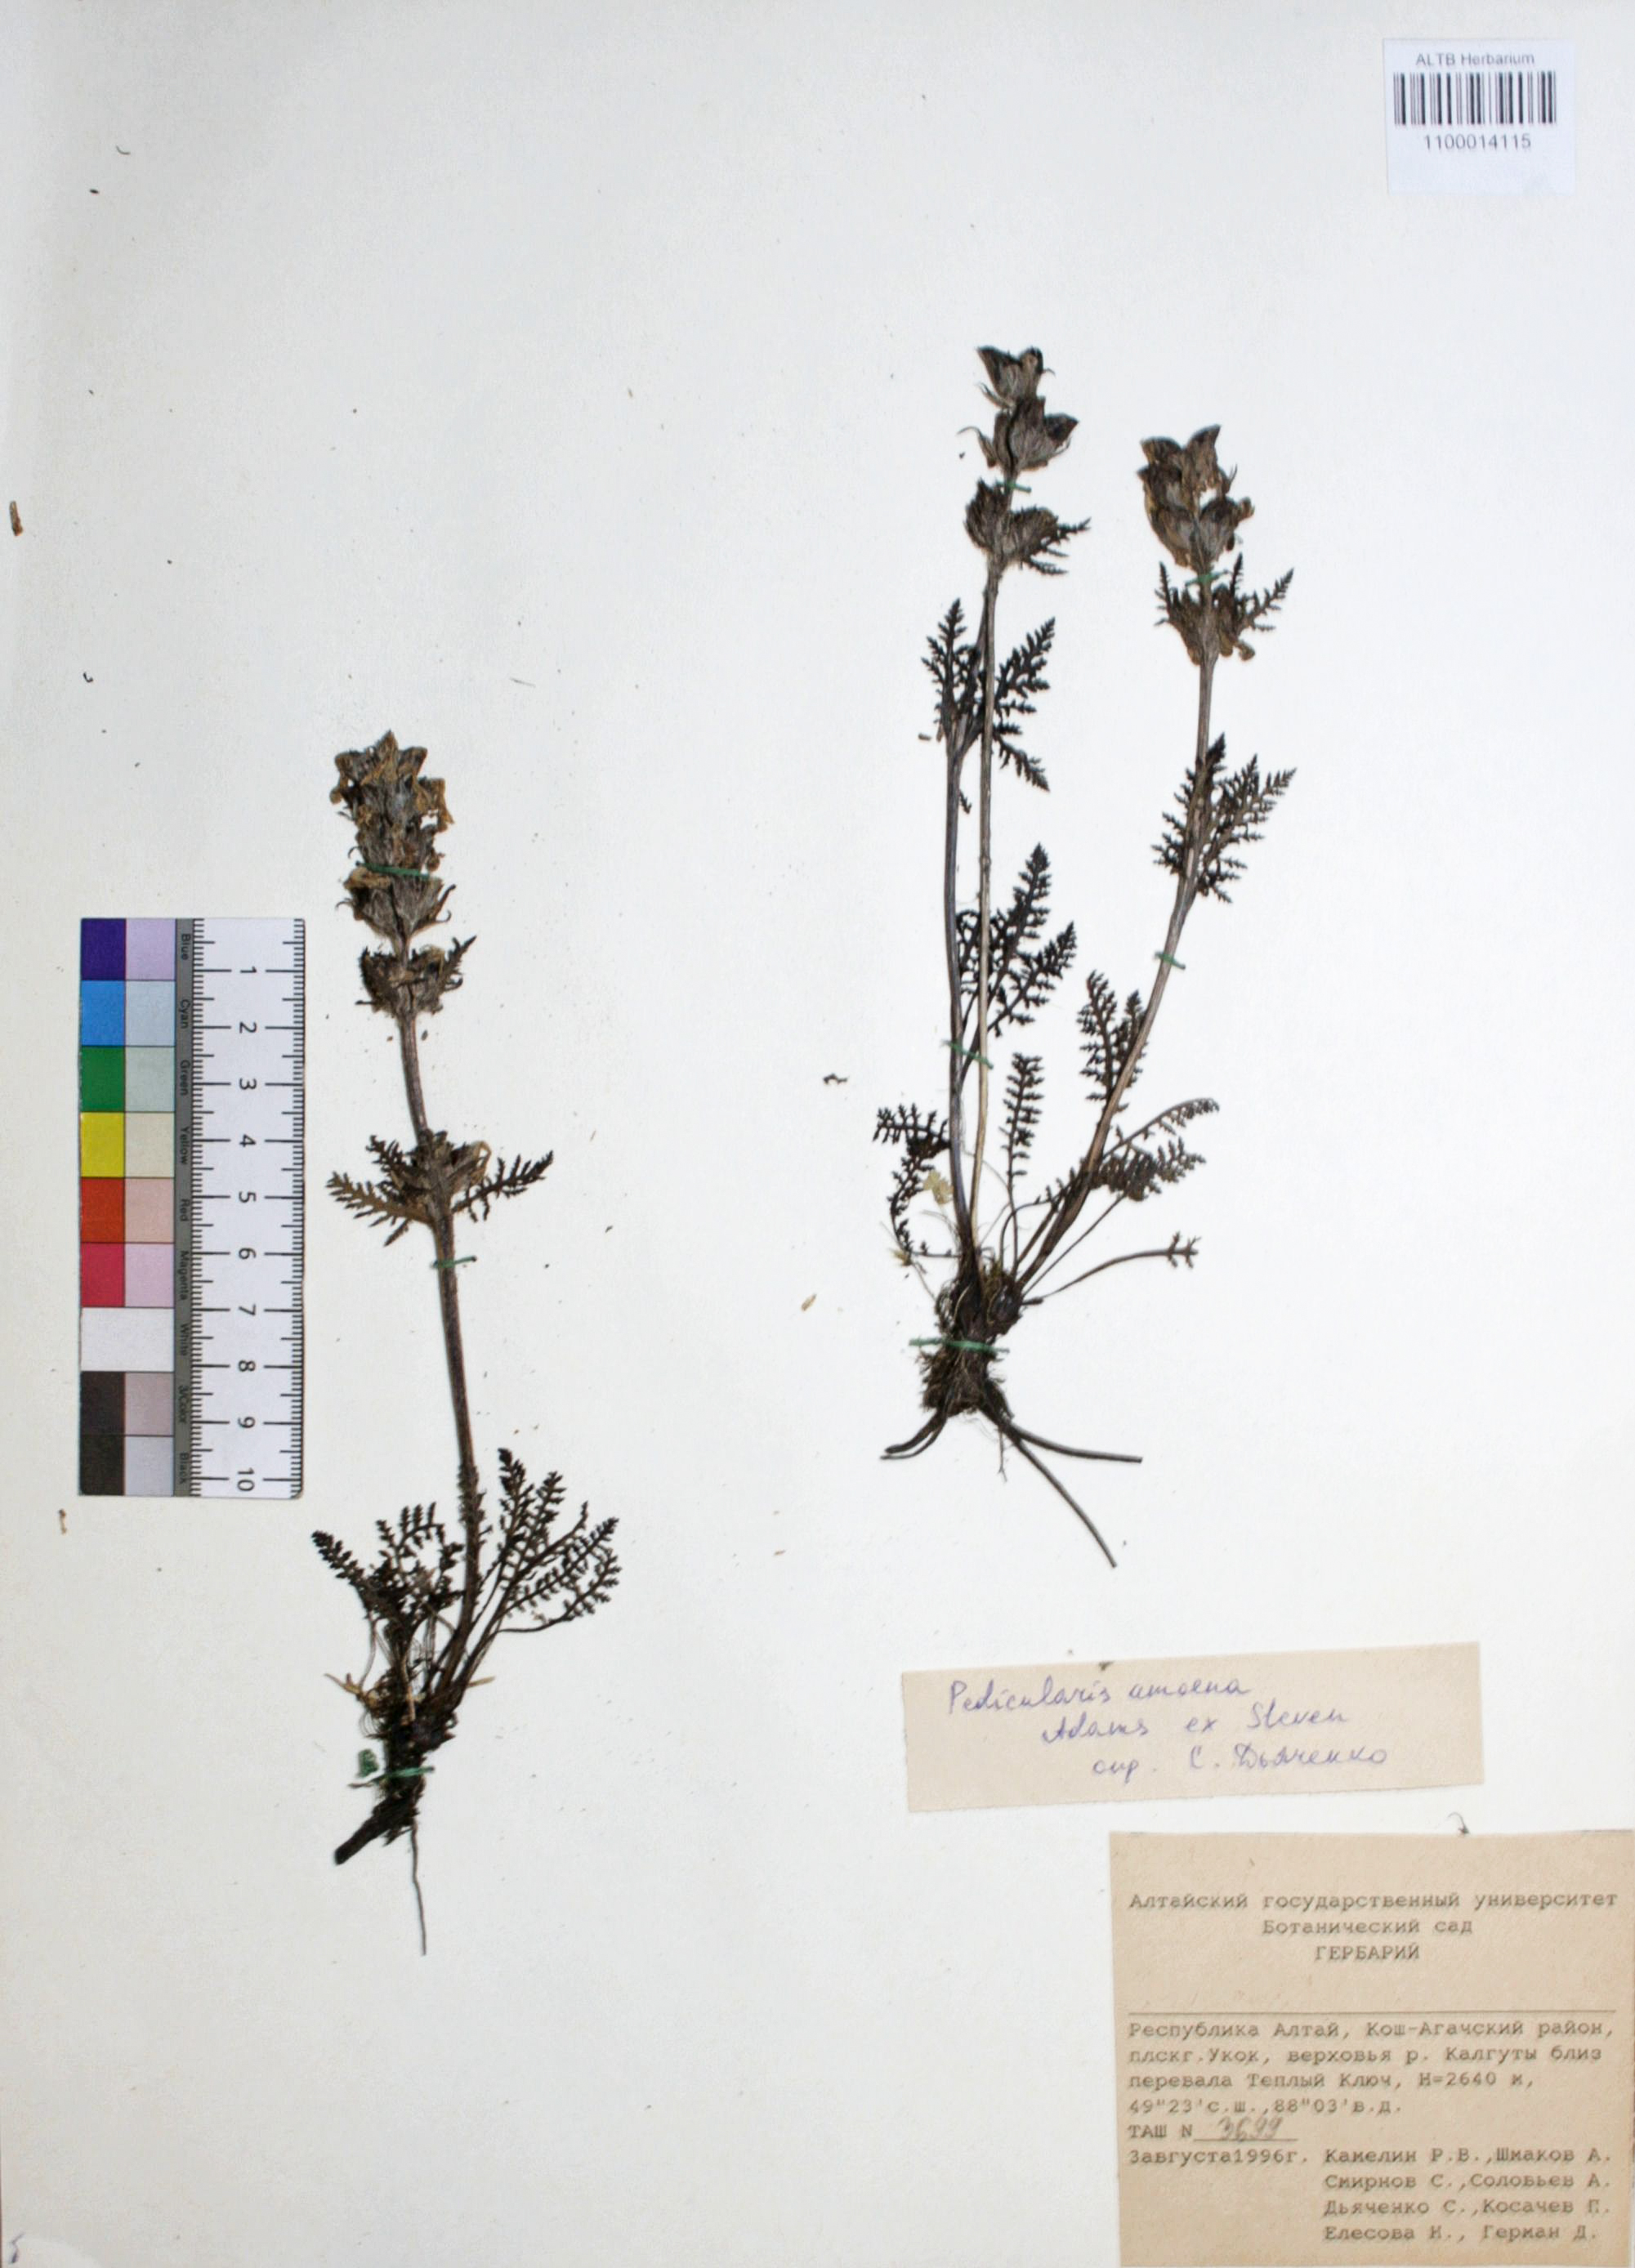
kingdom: Plantae
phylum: Tracheophyta
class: Magnoliopsida
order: Lamiales
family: Orobanchaceae
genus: Pedicularis
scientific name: Pedicularis amoena
